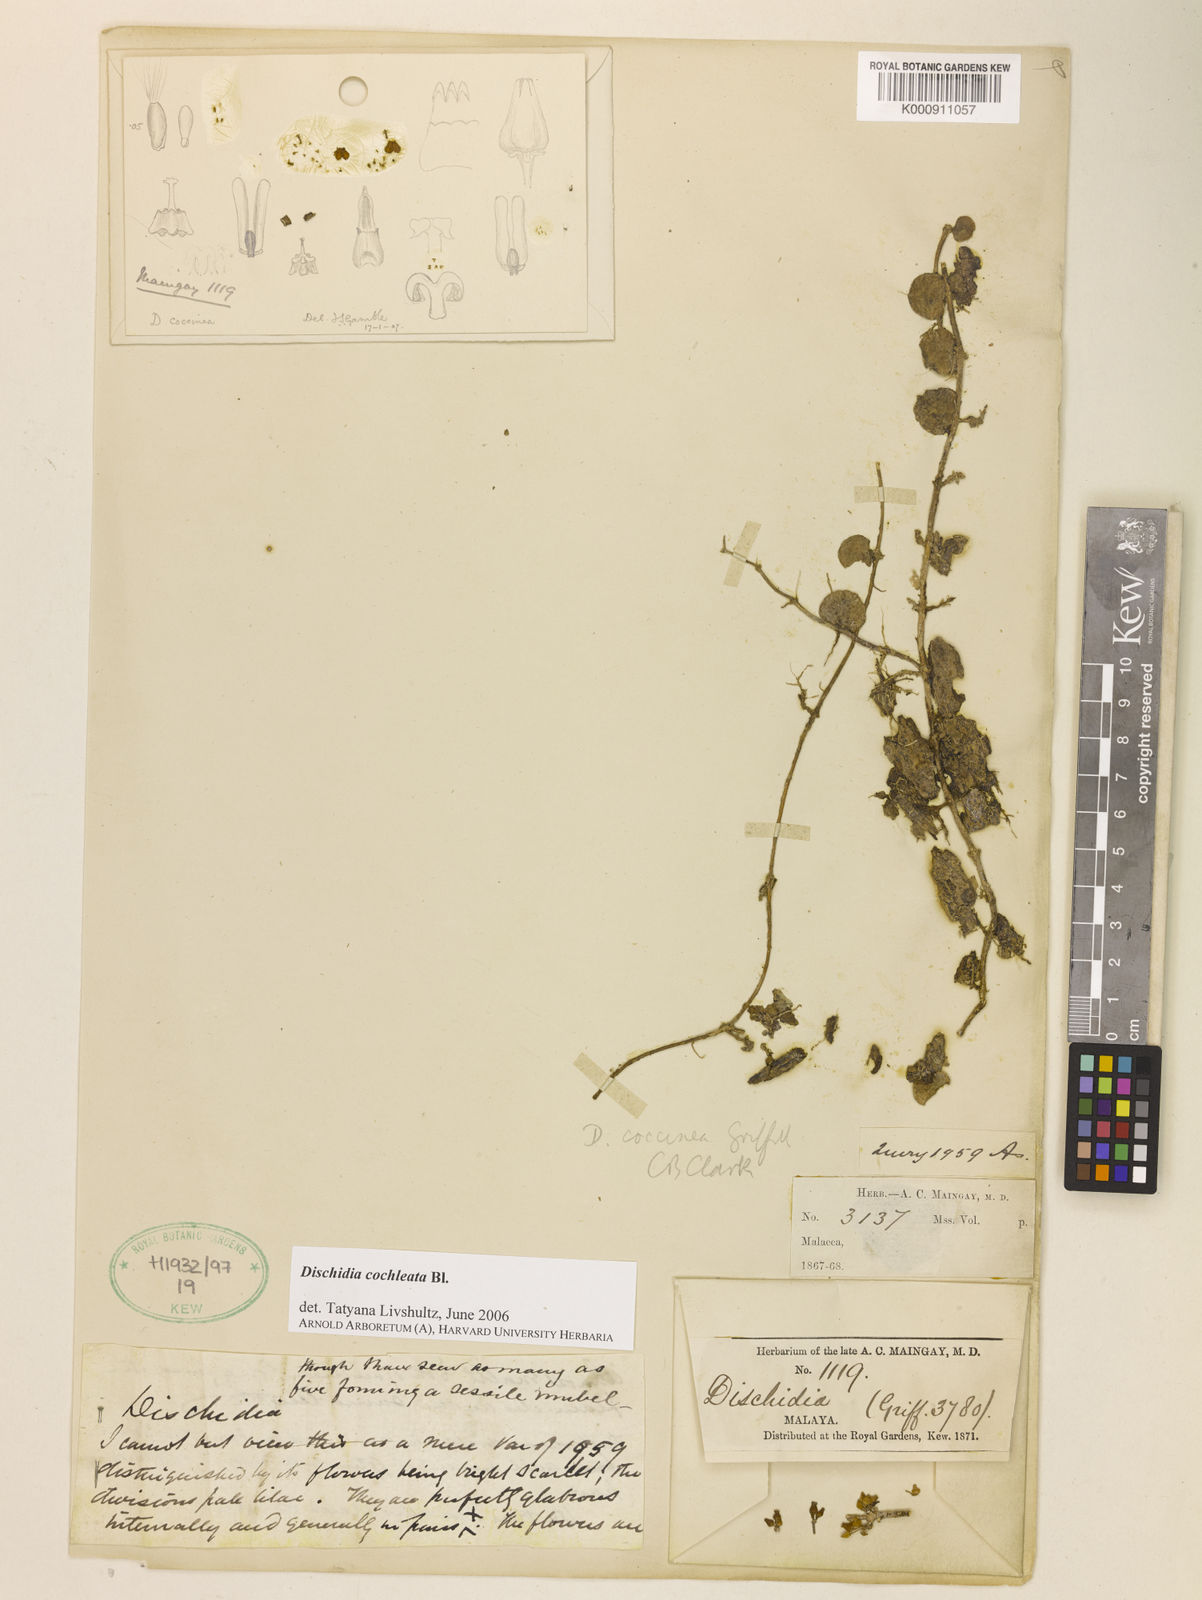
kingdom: Plantae
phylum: Tracheophyta
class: Magnoliopsida
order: Gentianales
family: Apocynaceae
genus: Dischidia
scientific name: Dischidia cochleata
